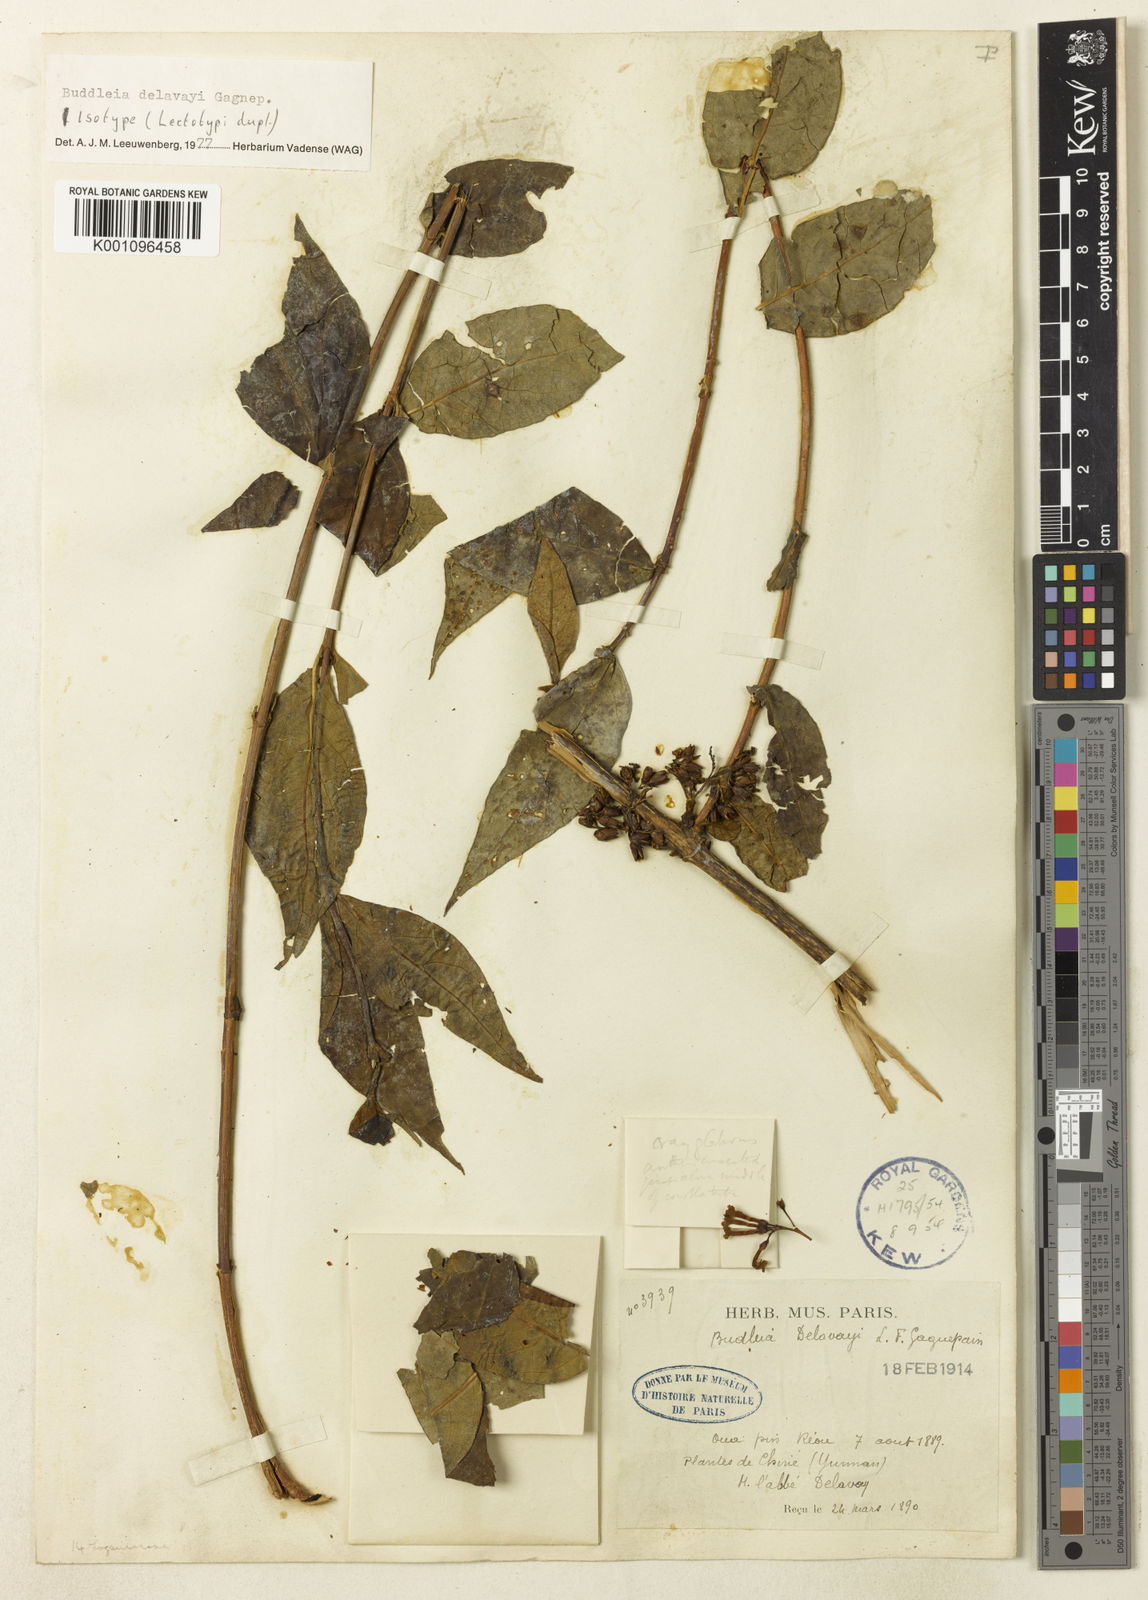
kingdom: Plantae
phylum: Tracheophyta
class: Magnoliopsida
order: Lamiales
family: Scrophulariaceae
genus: Buddleja
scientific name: Buddleja delavayi
